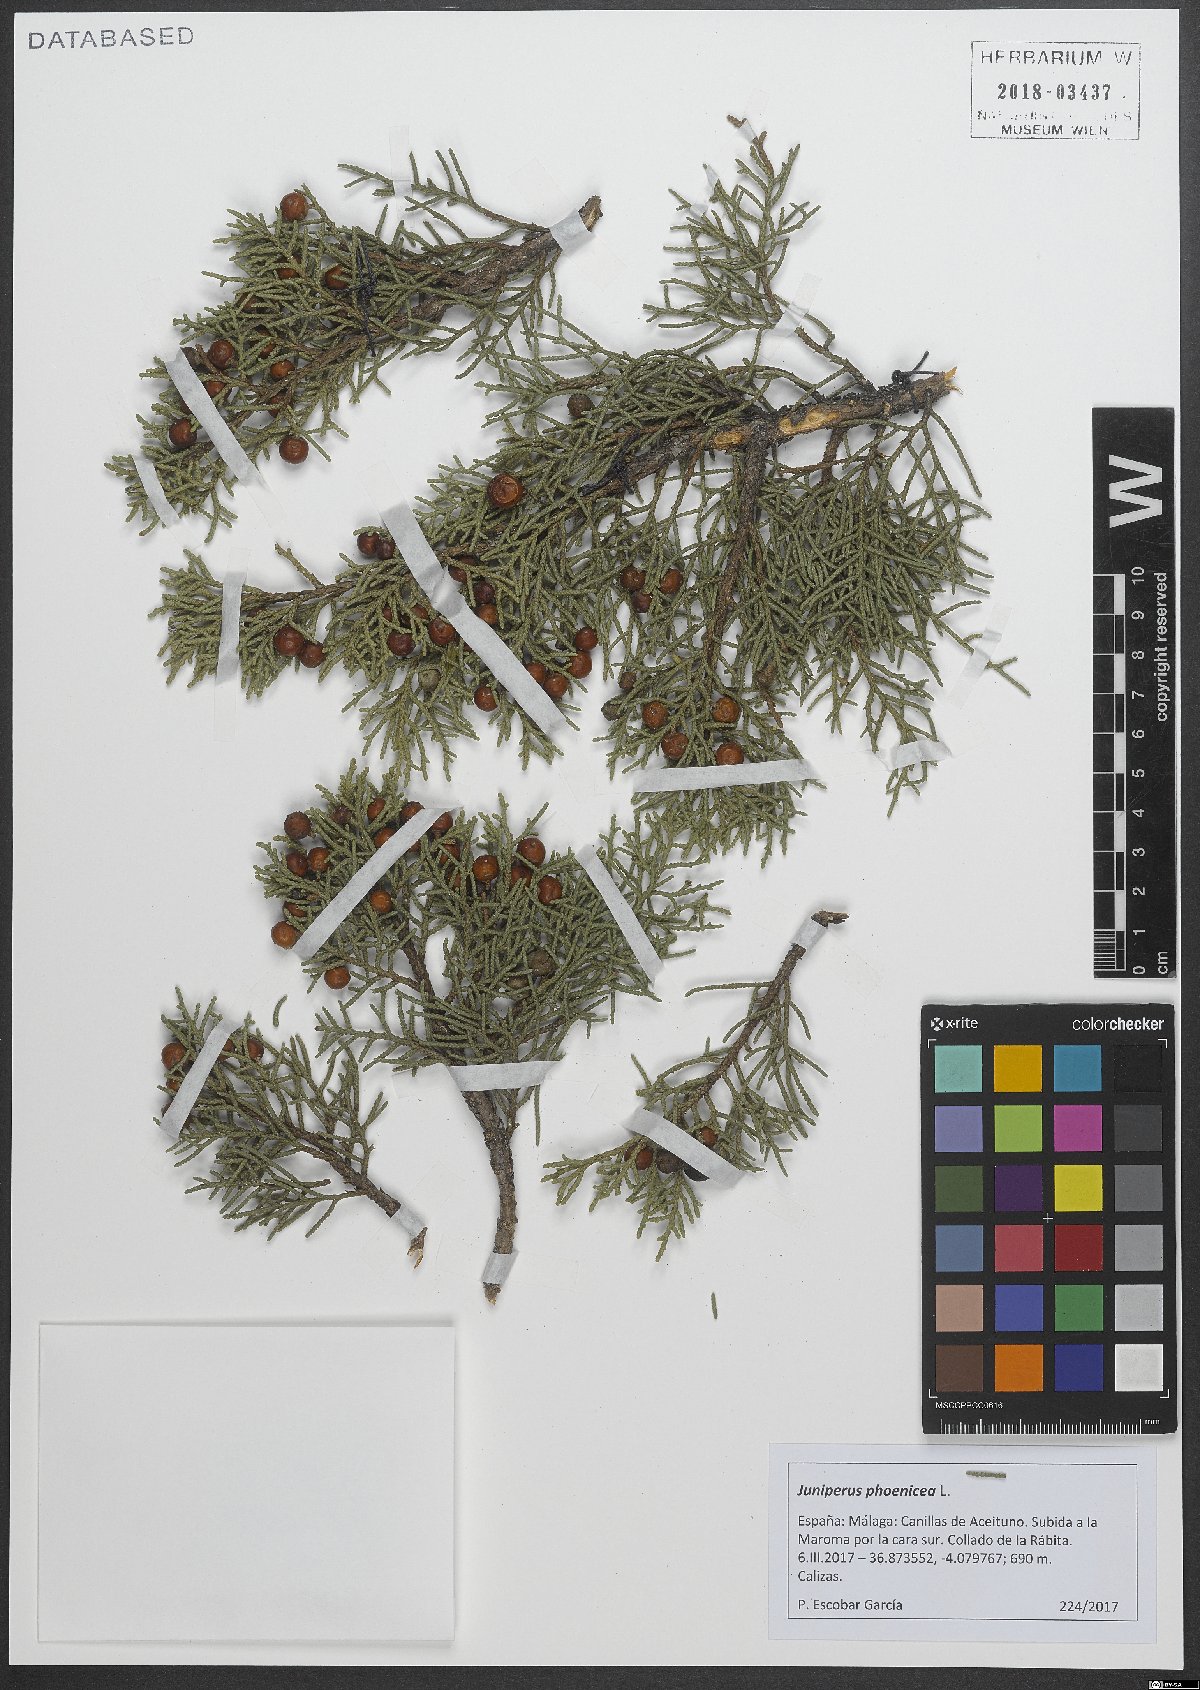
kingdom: Plantae
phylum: Tracheophyta
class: Pinopsida
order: Pinales
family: Cupressaceae
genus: Juniperus
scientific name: Juniperus phoenicea
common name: Phoenician juniper
